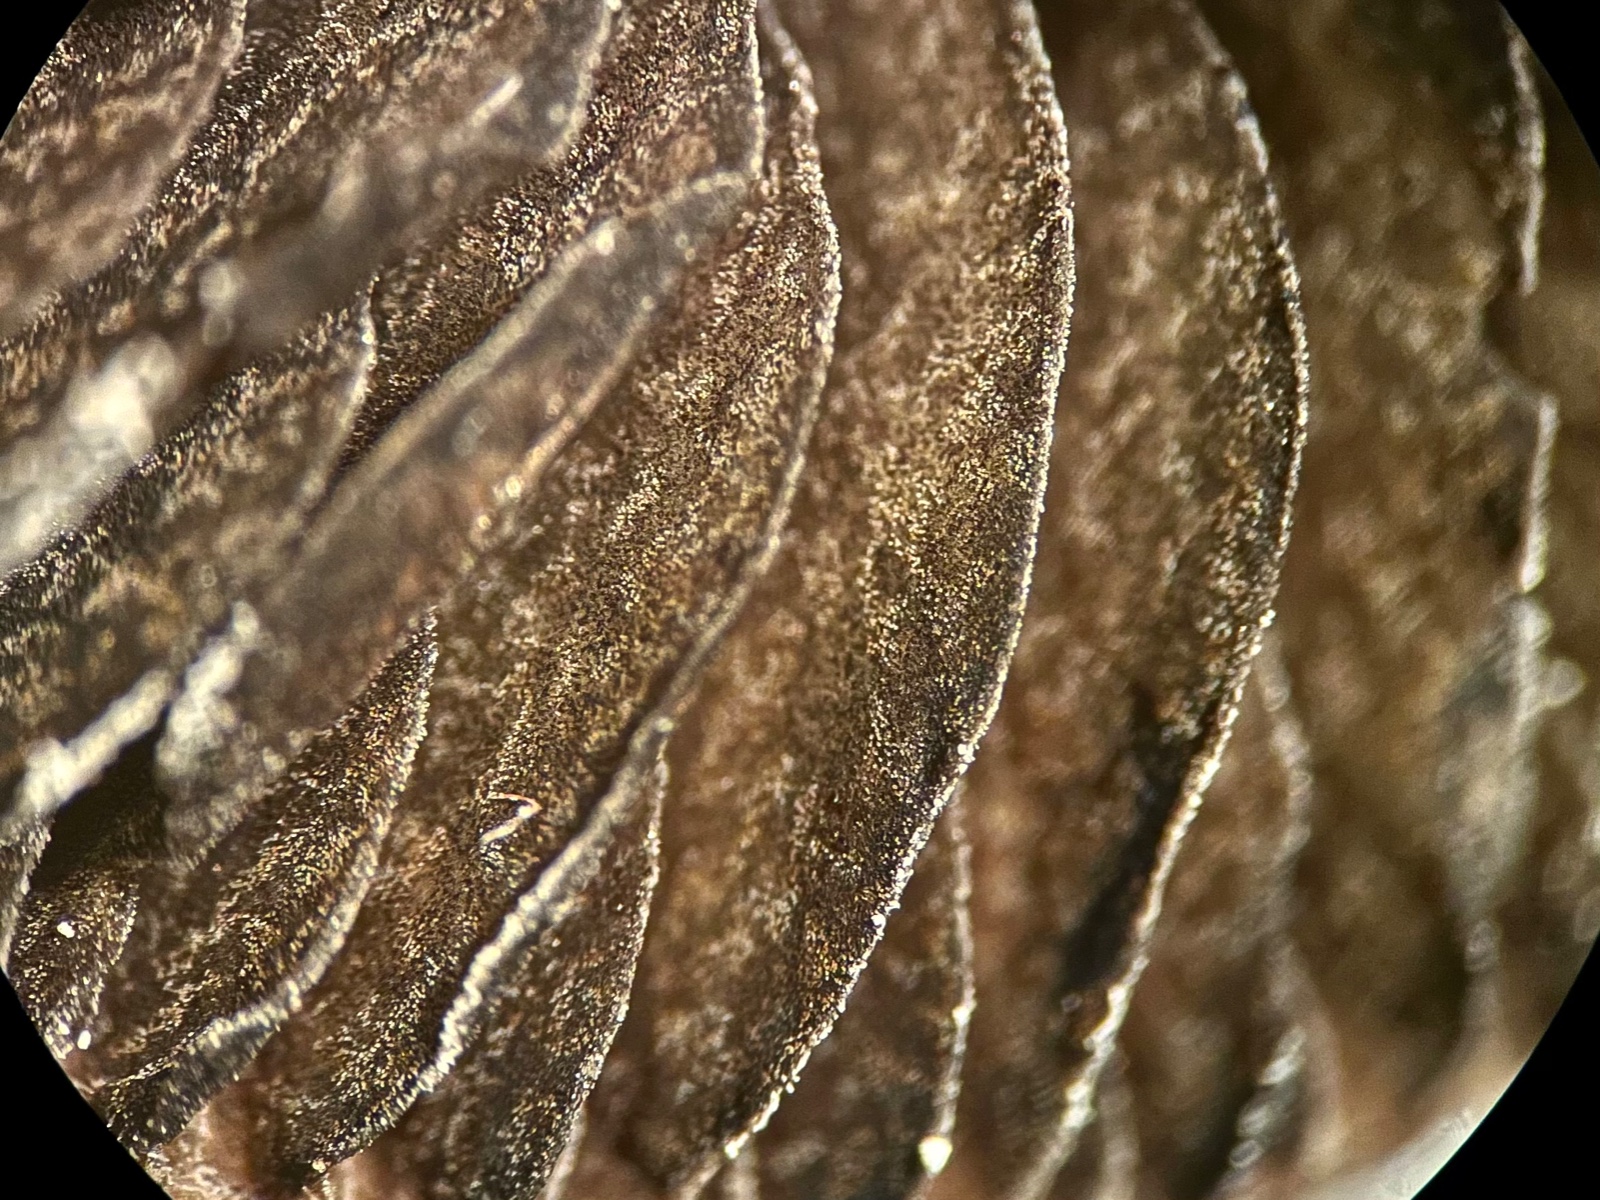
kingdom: Fungi
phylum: Basidiomycota
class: Agaricomycetes
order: Agaricales
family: Bolbitiaceae
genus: Panaeolus
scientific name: Panaeolus
